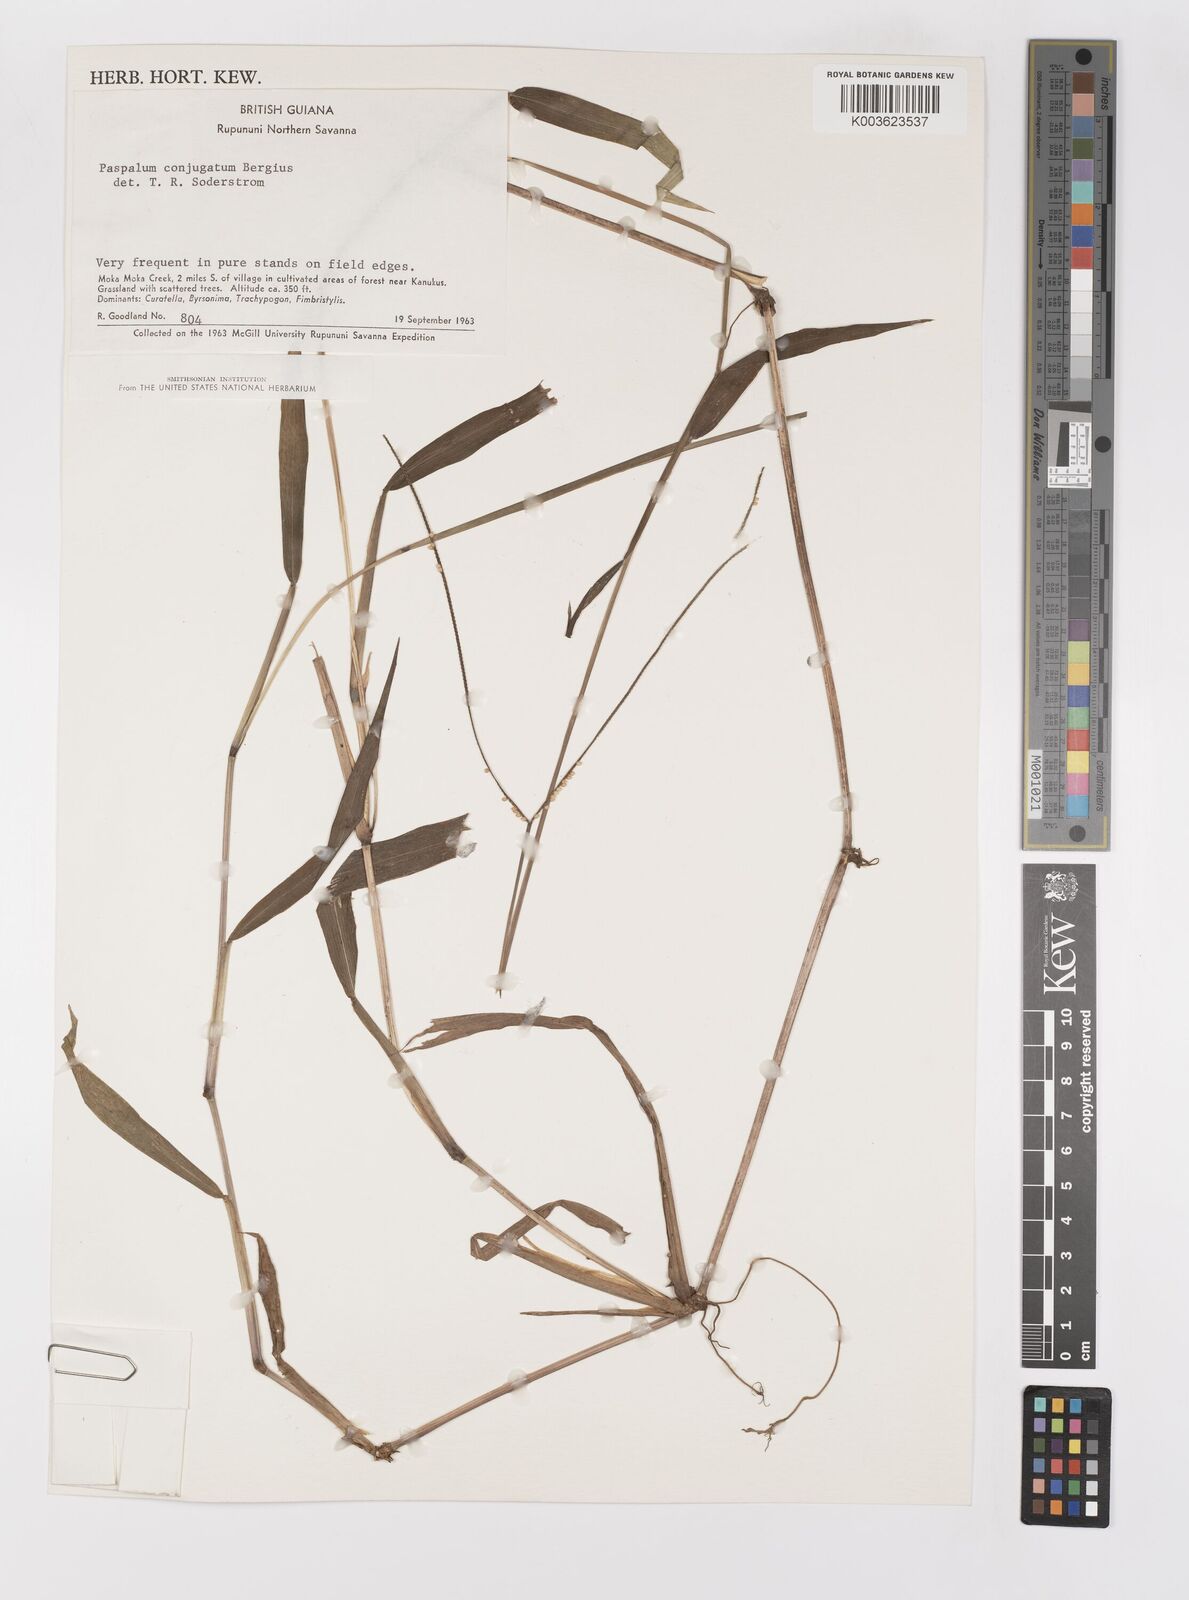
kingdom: Plantae
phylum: Tracheophyta
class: Liliopsida
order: Poales
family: Poaceae
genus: Paspalum
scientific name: Paspalum conjugatum
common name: Hilograss
